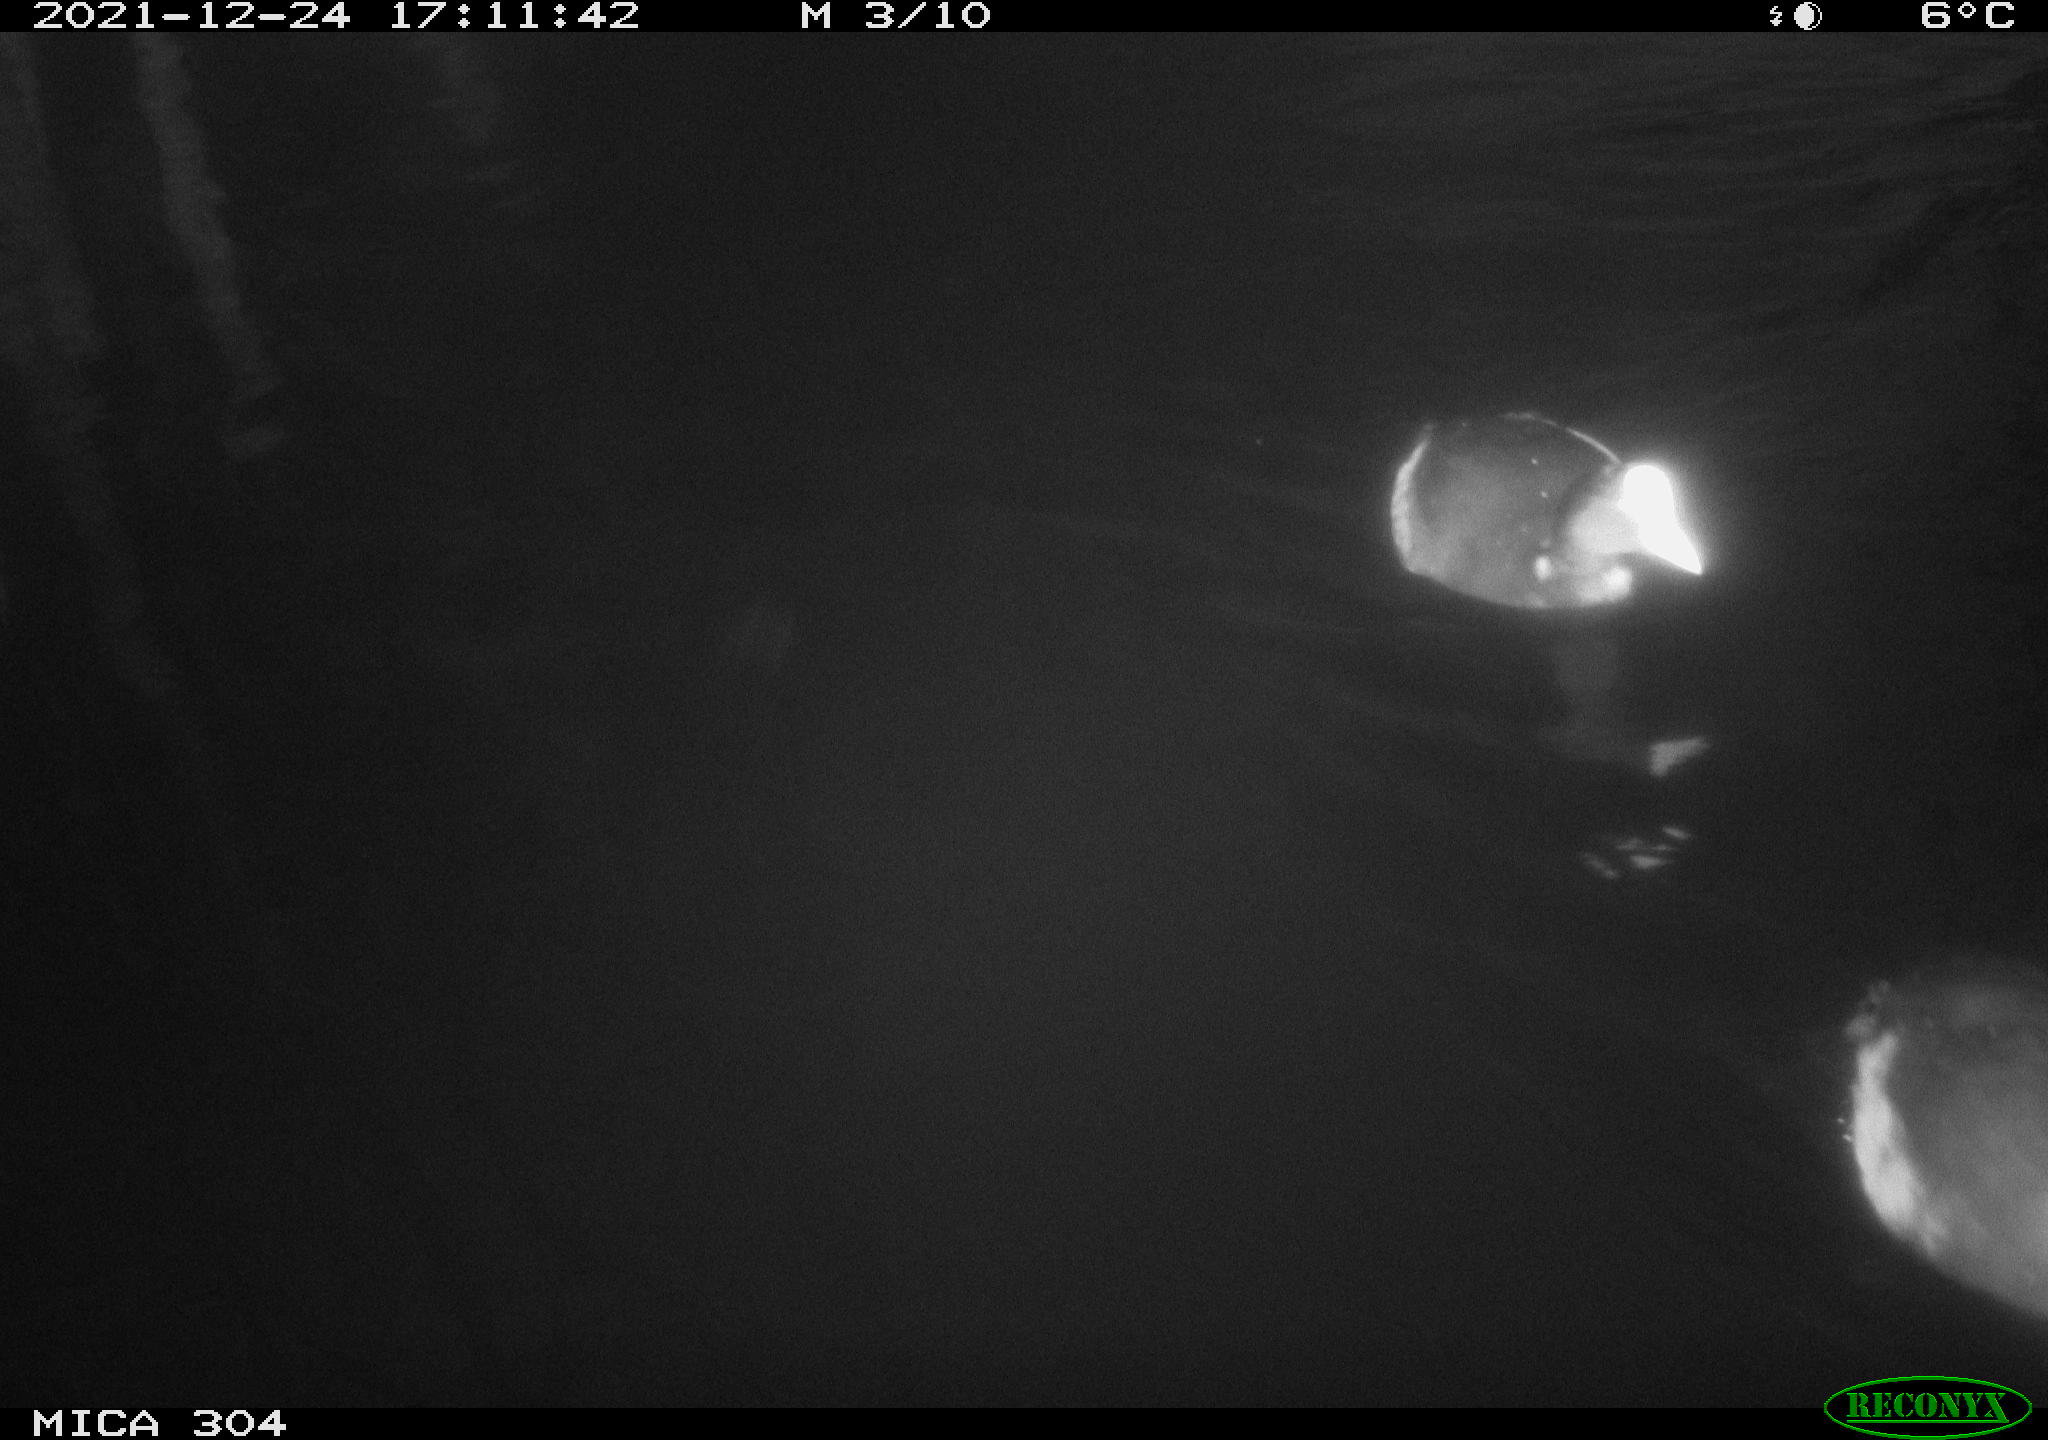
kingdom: Animalia
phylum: Chordata
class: Aves
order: Anseriformes
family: Anatidae
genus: Anas
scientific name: Anas
